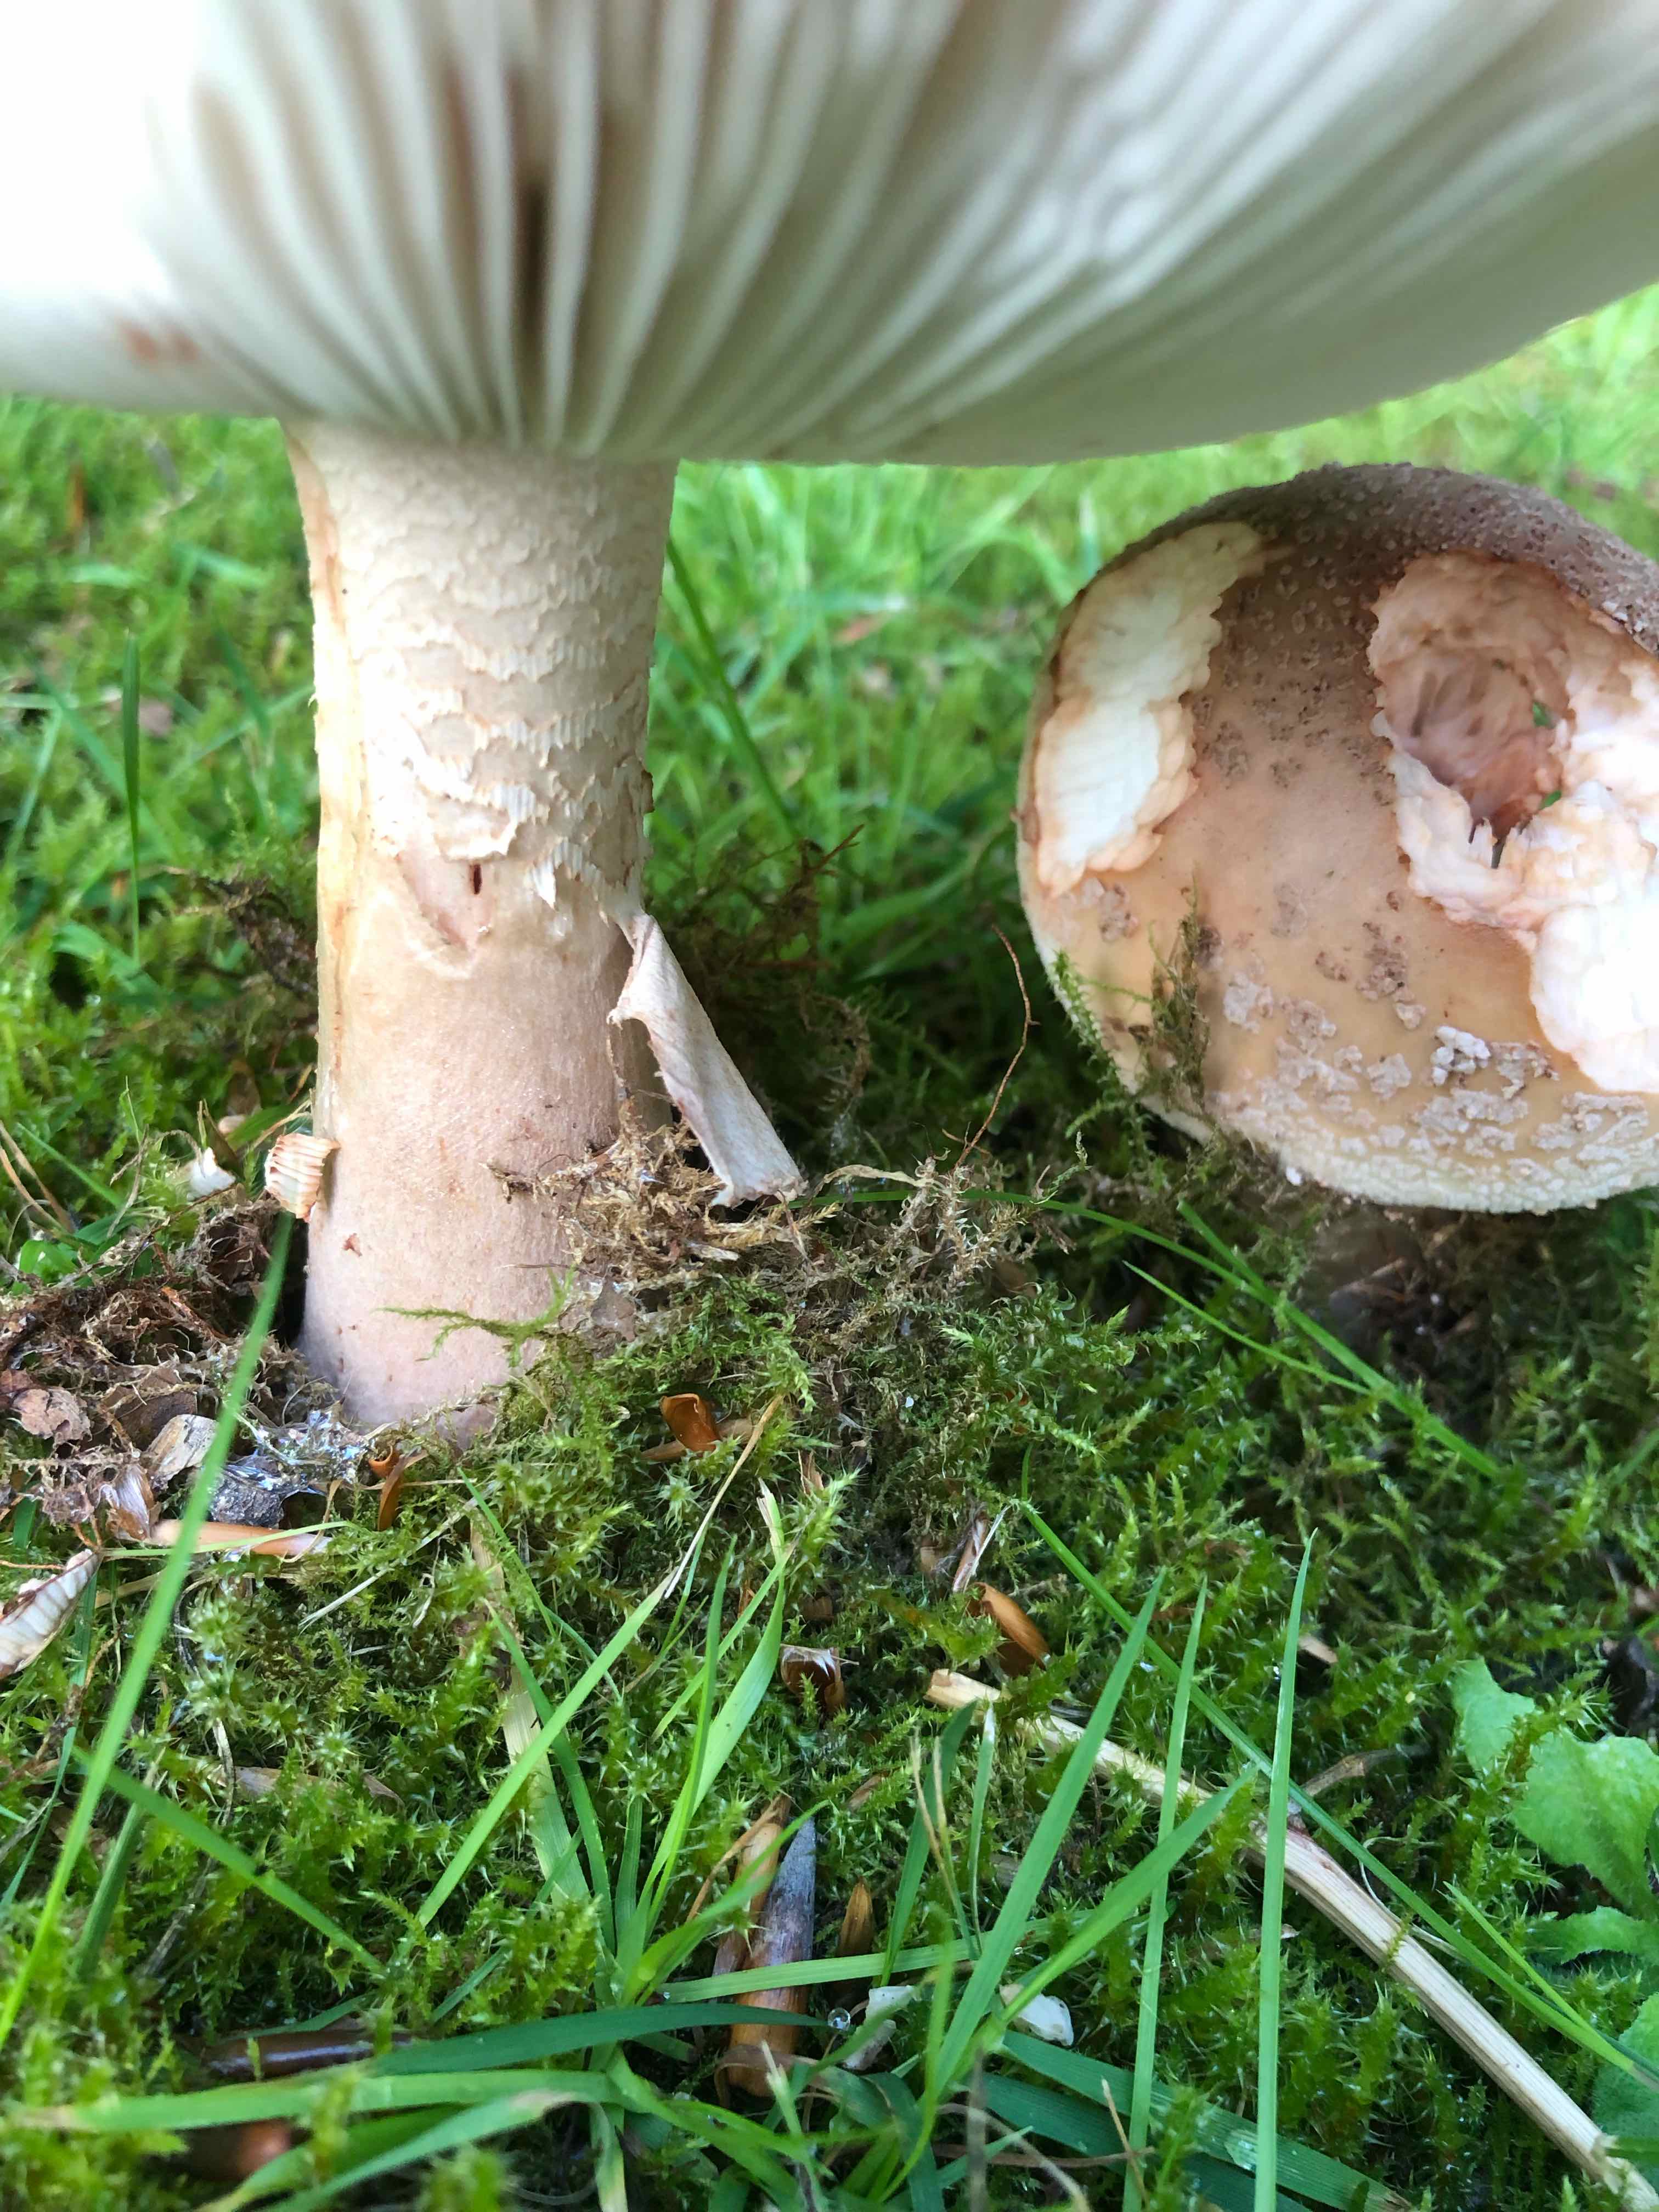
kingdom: Fungi
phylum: Basidiomycota
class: Agaricomycetes
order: Agaricales
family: Amanitaceae
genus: Amanita
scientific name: Amanita rubescens
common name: rødmende fluesvamp
